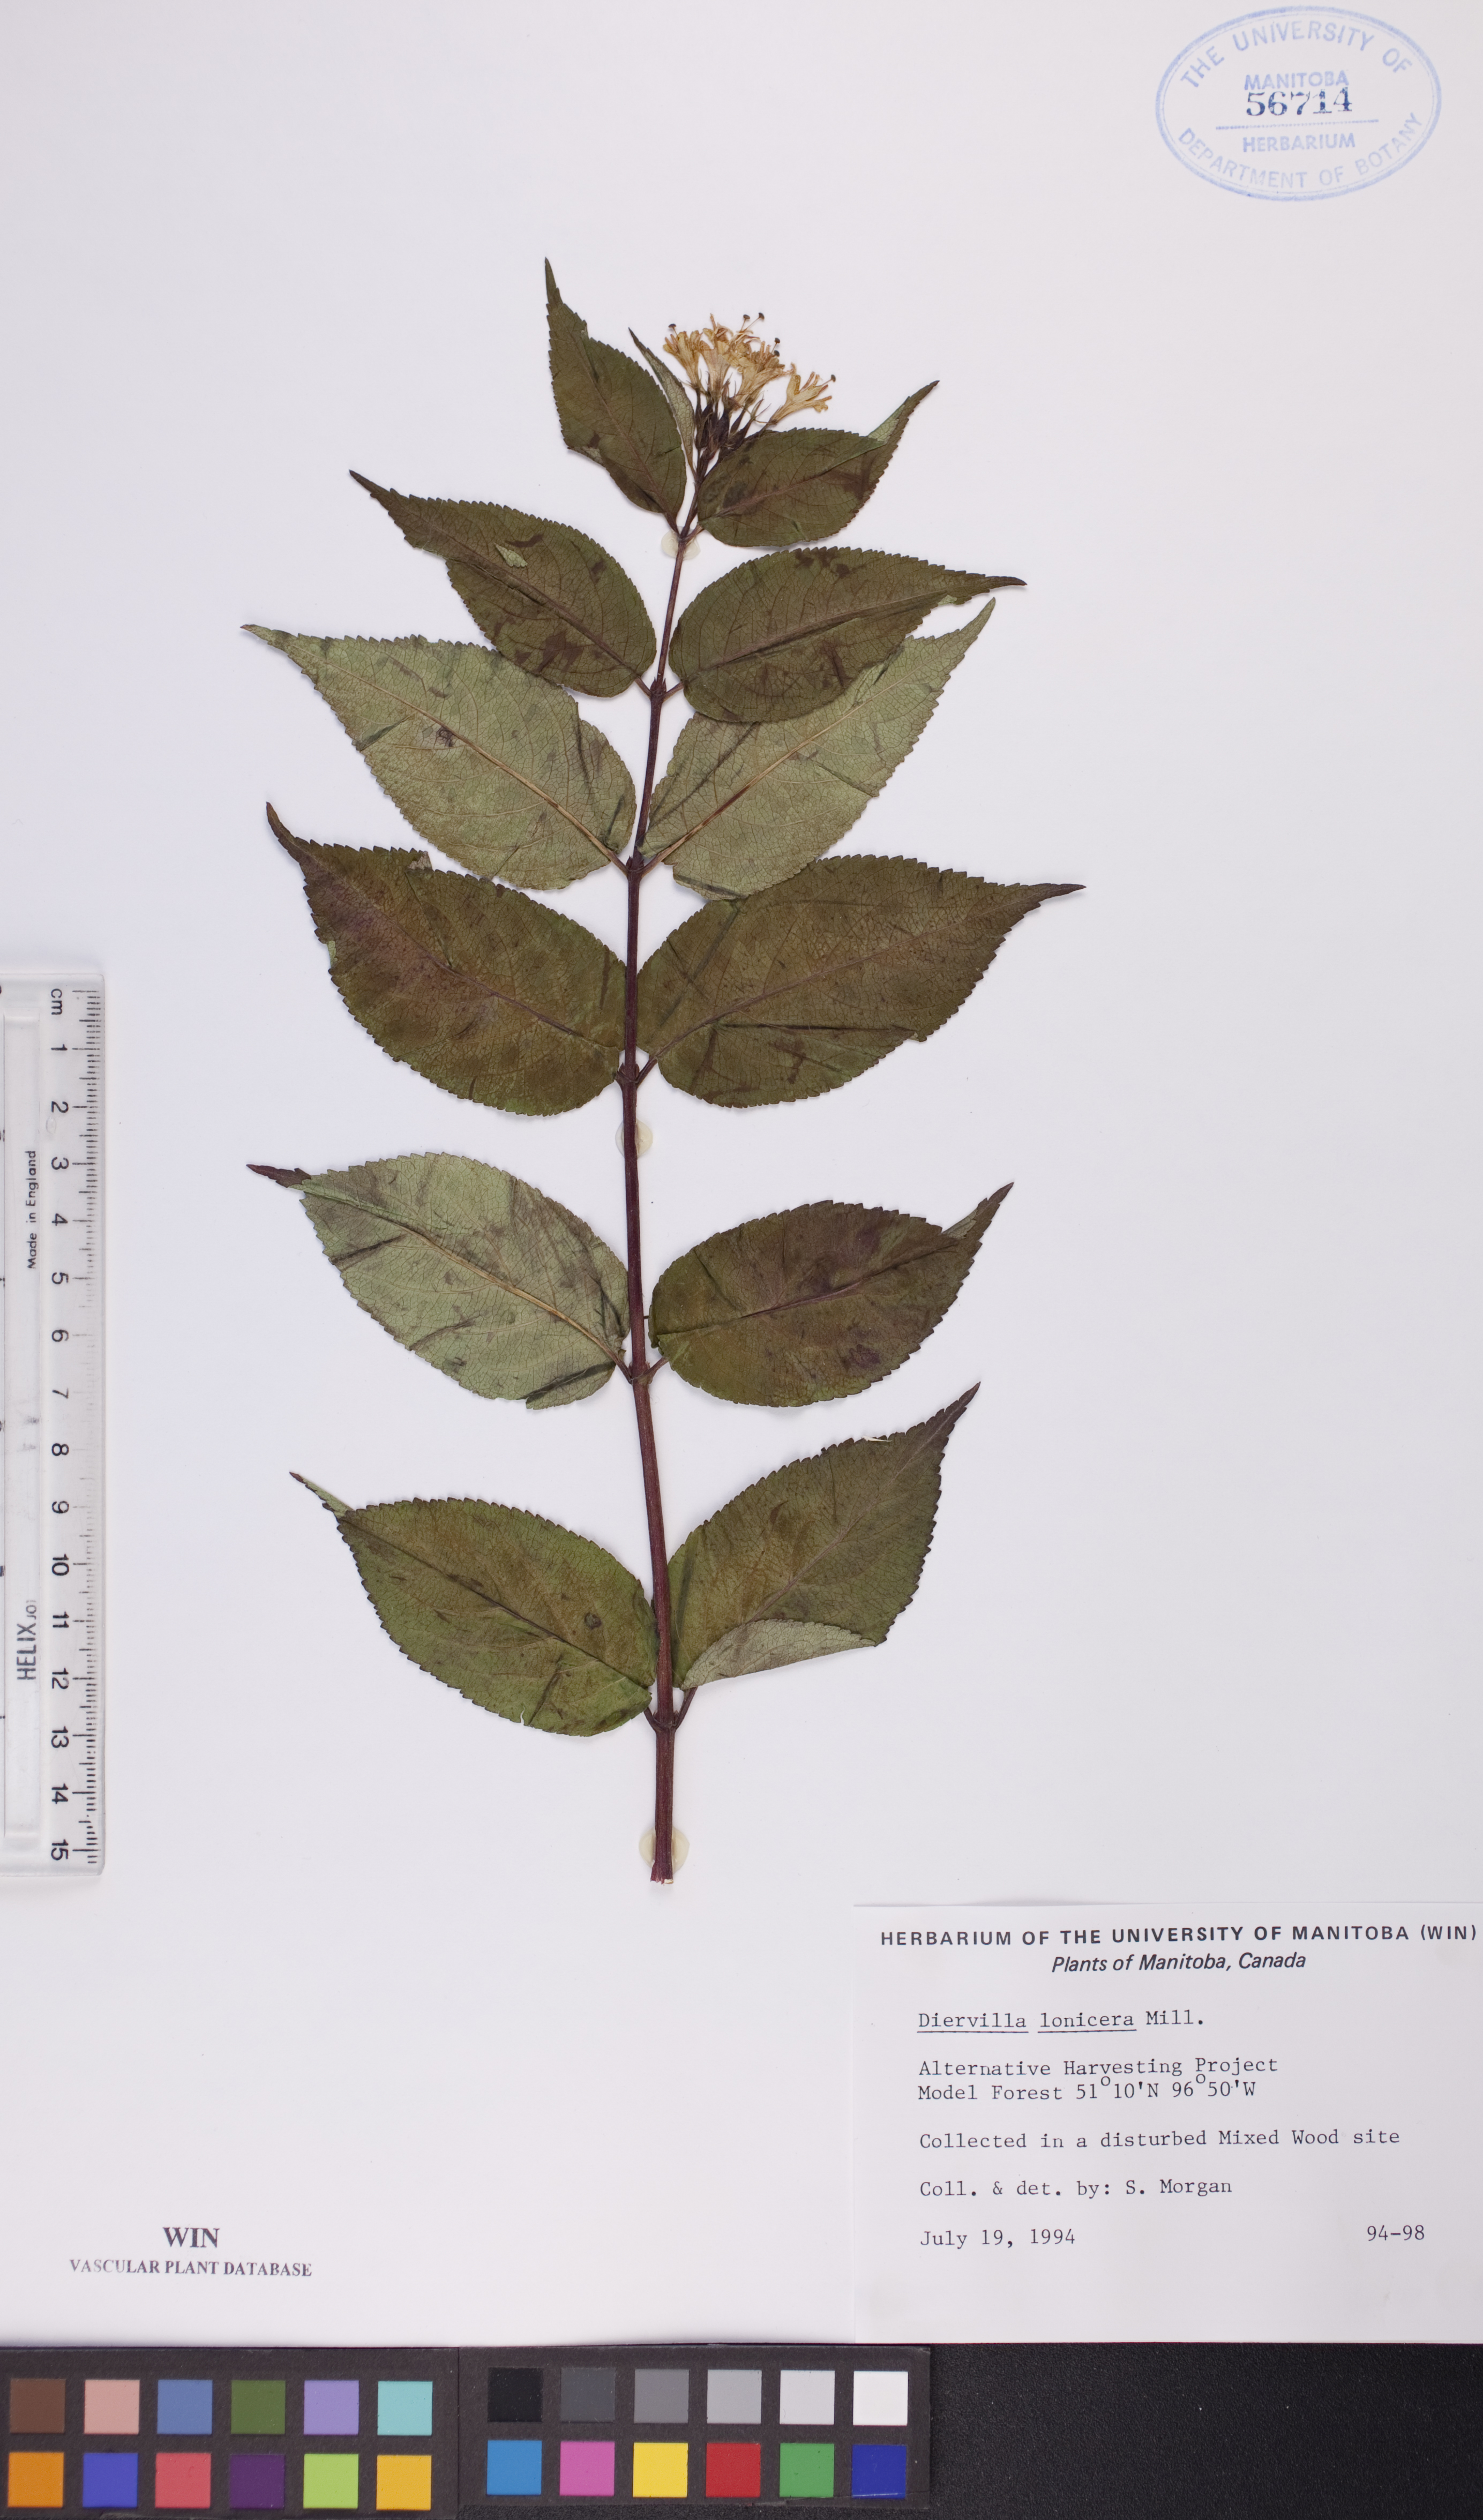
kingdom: Plantae
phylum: Tracheophyta
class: Magnoliopsida
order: Dipsacales
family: Caprifoliaceae
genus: Diervilla
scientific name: Diervilla lonicera
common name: Bush-honeysuckle
